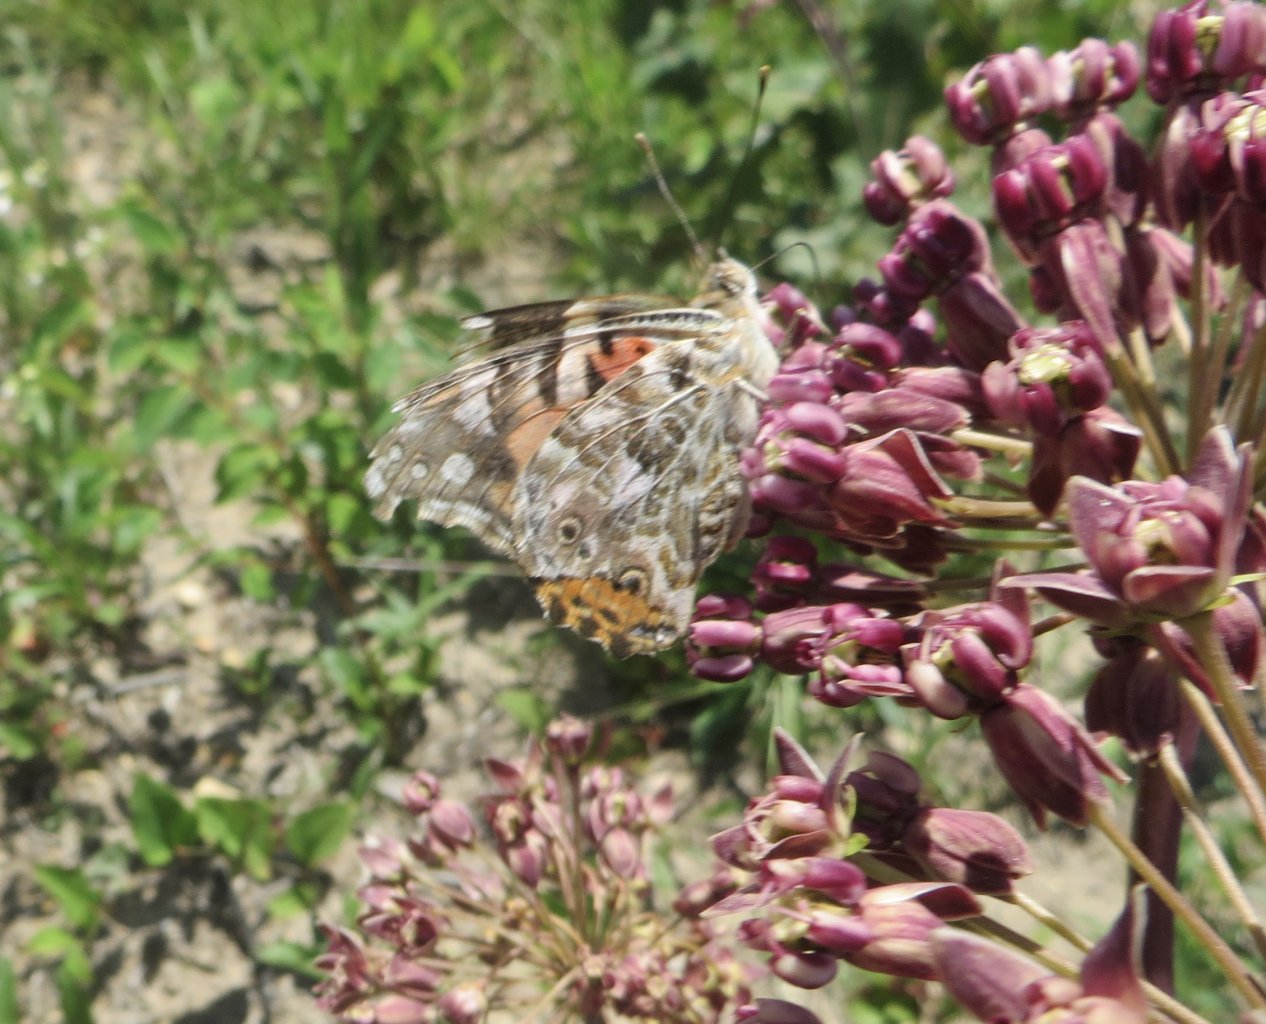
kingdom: Animalia
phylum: Arthropoda
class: Insecta
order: Lepidoptera
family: Nymphalidae
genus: Vanessa
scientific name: Vanessa cardui
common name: Painted Lady
